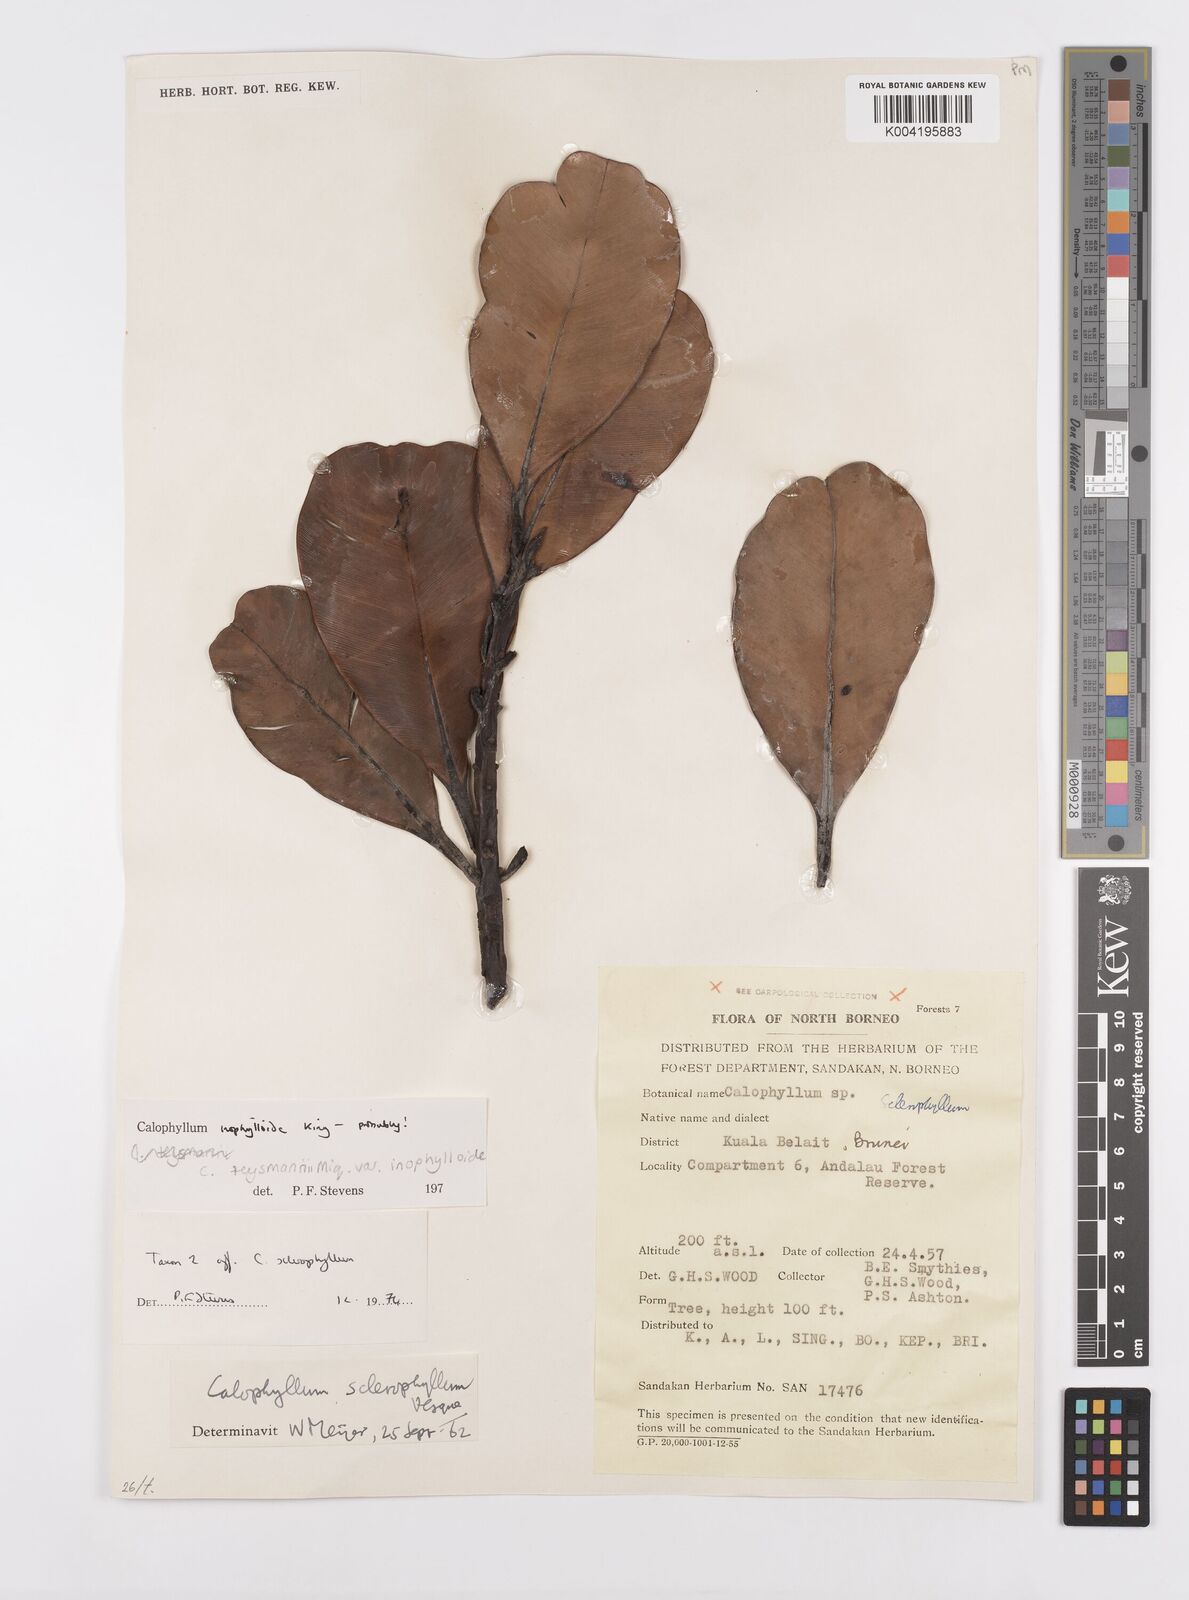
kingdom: Plantae
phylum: Tracheophyta
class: Magnoliopsida
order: Malpighiales
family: Calophyllaceae
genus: Calophyllum
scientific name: Calophyllum teysmannii
